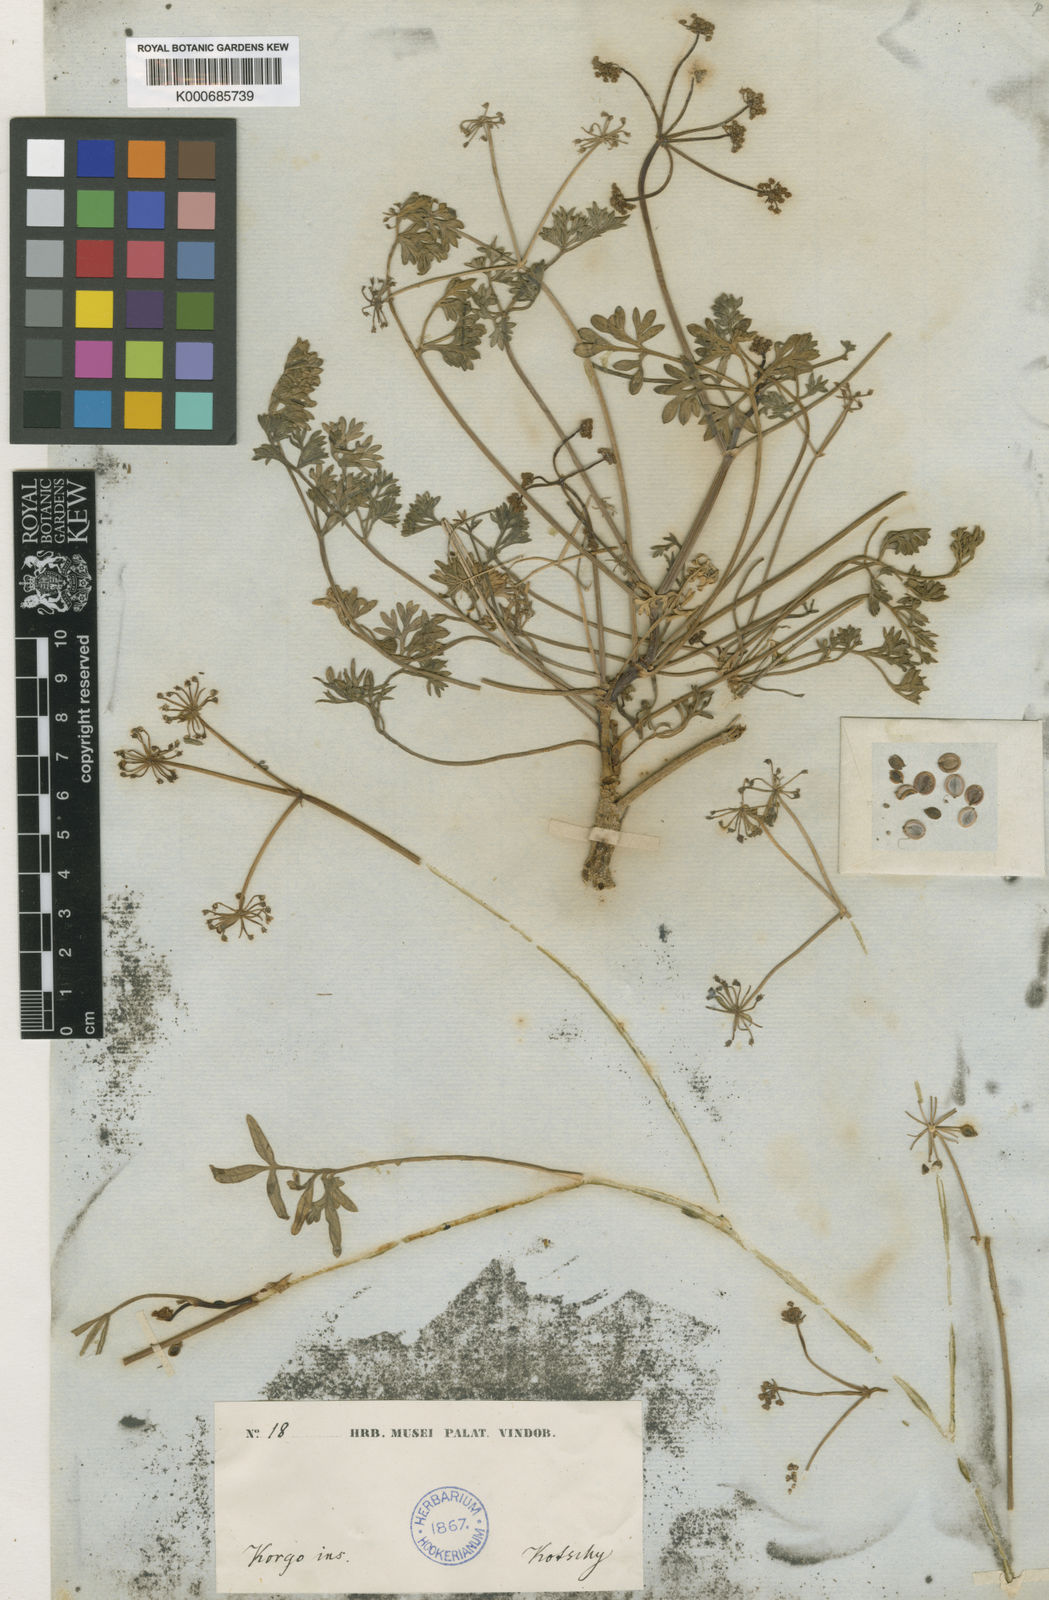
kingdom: Plantae
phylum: Tracheophyta
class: Magnoliopsida
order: Apiales
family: Apiaceae
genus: Ducrosia
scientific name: Ducrosia anethifolia
